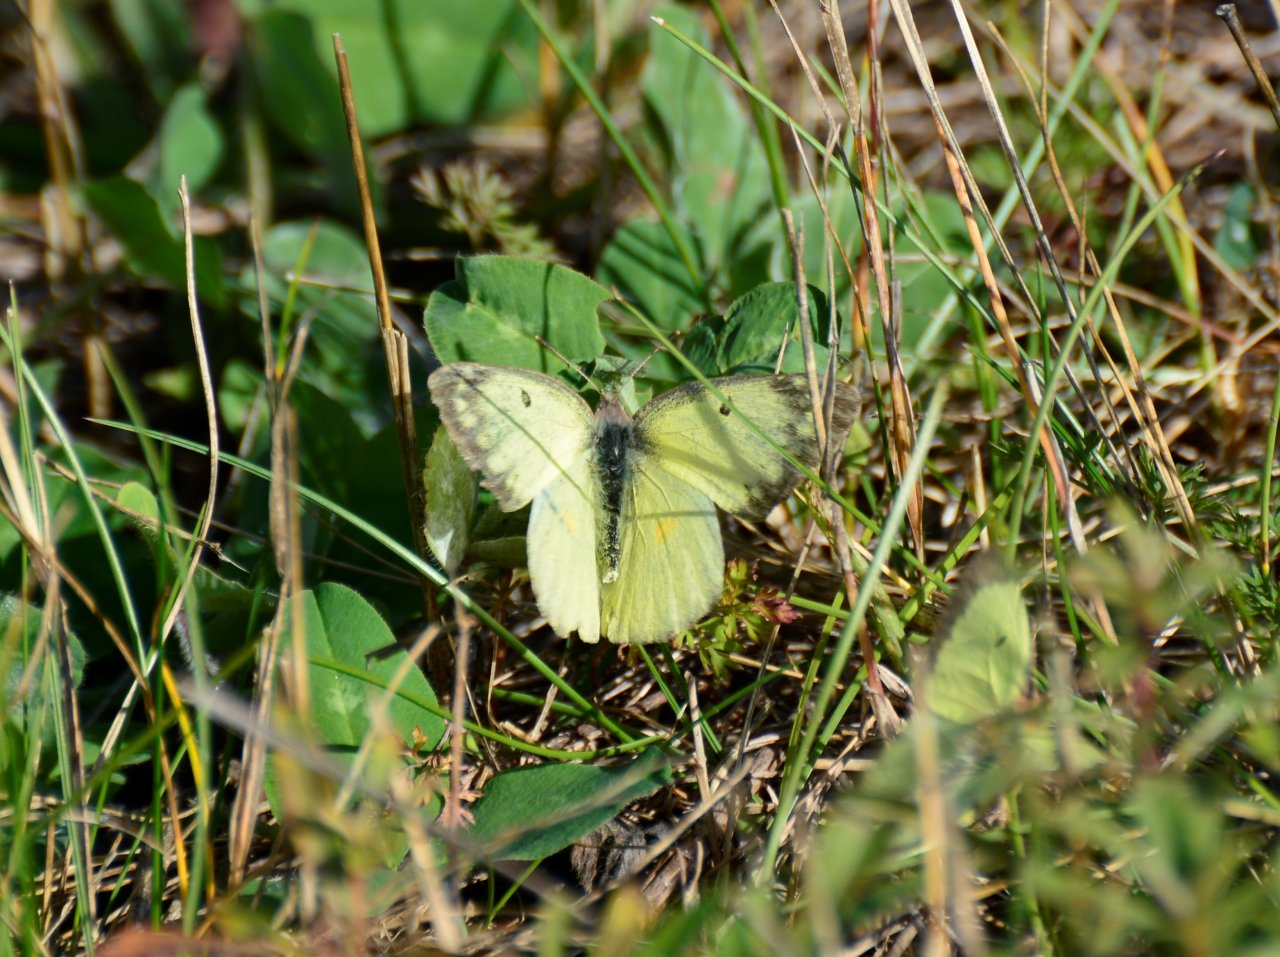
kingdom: Animalia
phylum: Arthropoda
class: Insecta
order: Lepidoptera
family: Pieridae
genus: Colias
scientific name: Colias philodice
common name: Clouded Sulphur
